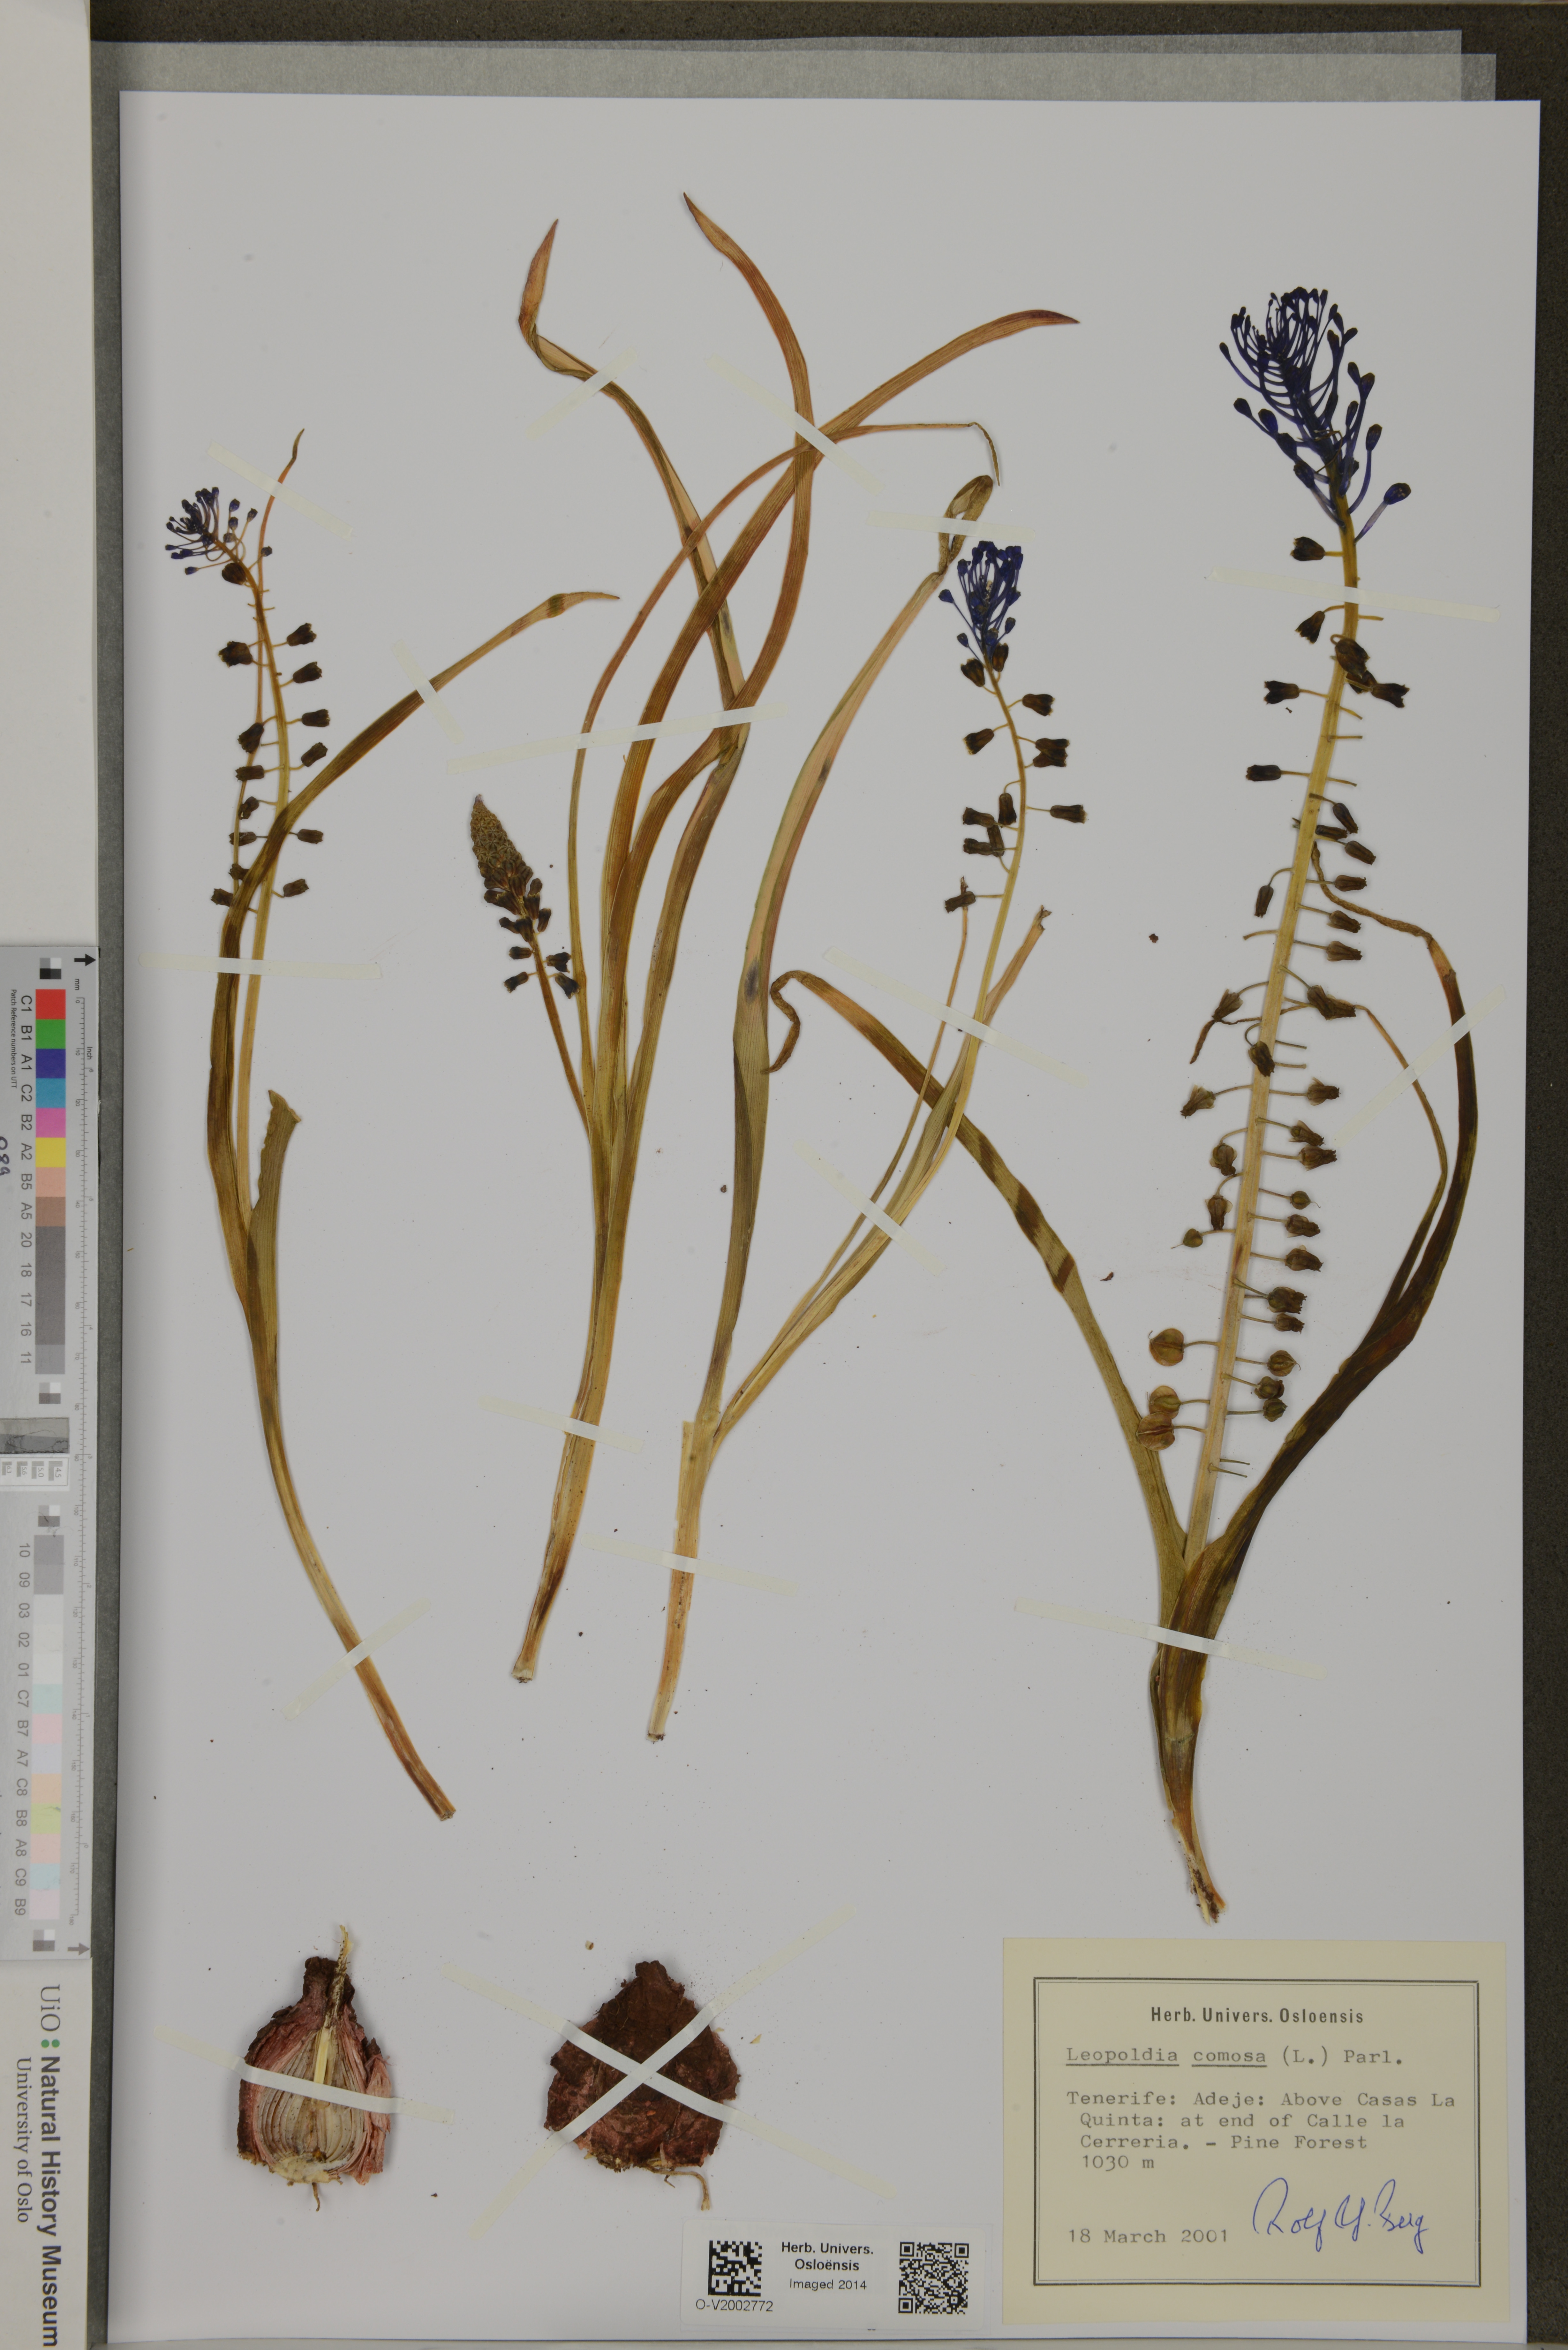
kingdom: Plantae
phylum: Tracheophyta
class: Liliopsida
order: Asparagales
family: Asparagaceae
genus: Muscari
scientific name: Muscari comosum
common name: Tassel hyacinth
